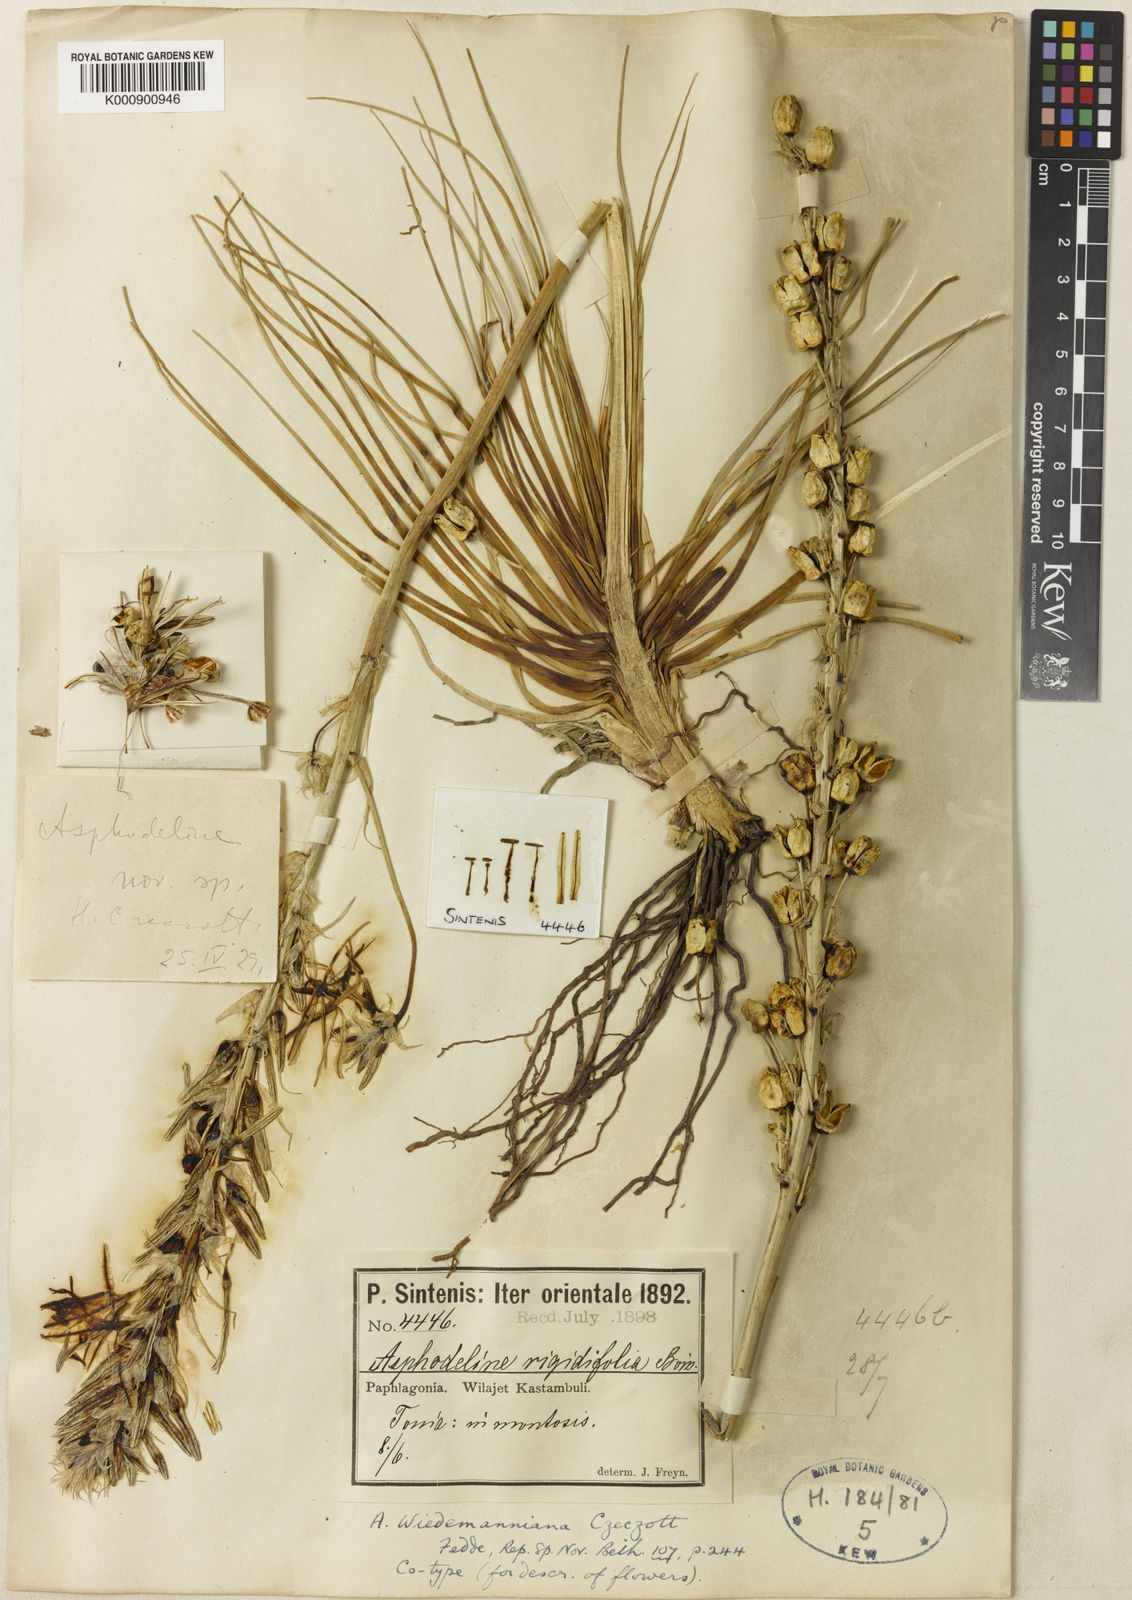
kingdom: Plantae
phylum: Tracheophyta
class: Liliopsida
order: Asparagales
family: Asphodelaceae
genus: Asphodeline
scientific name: Asphodeline damascena
